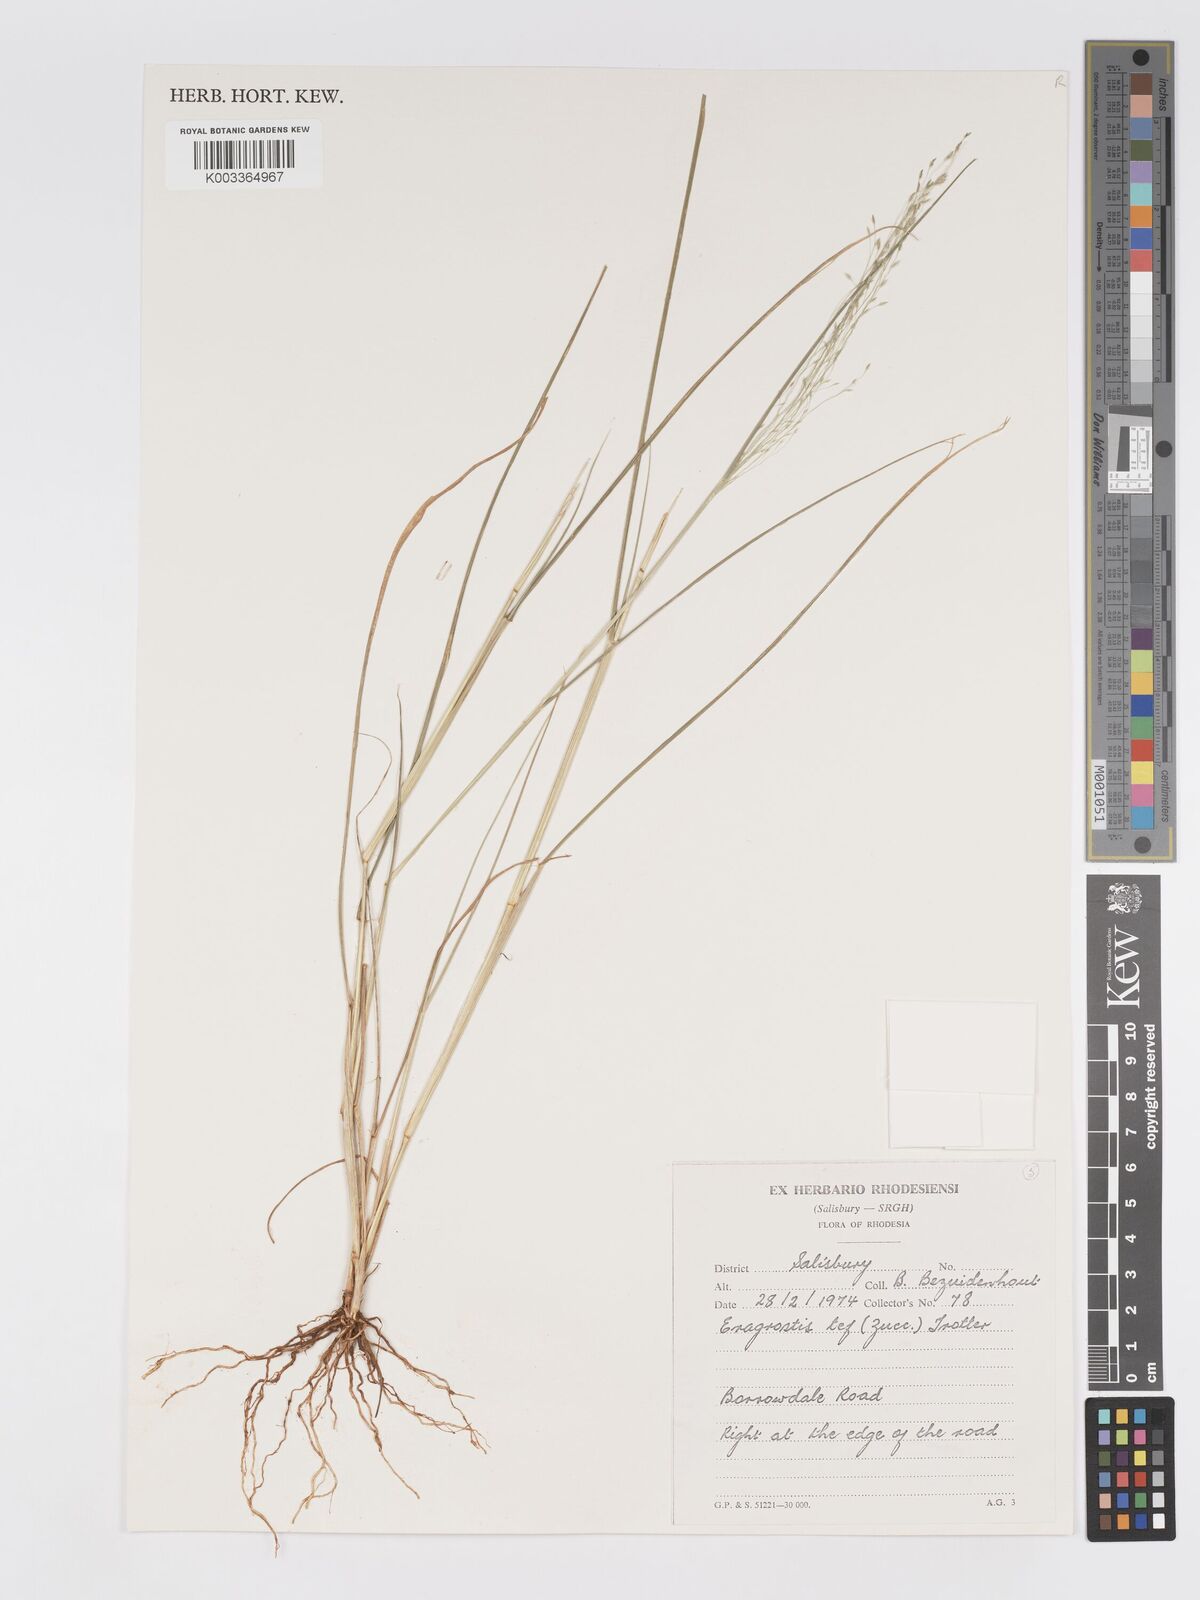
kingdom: Plantae
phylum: Tracheophyta
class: Liliopsida
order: Poales
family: Poaceae
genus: Eragrostis
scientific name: Eragrostis tef
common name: Teff
